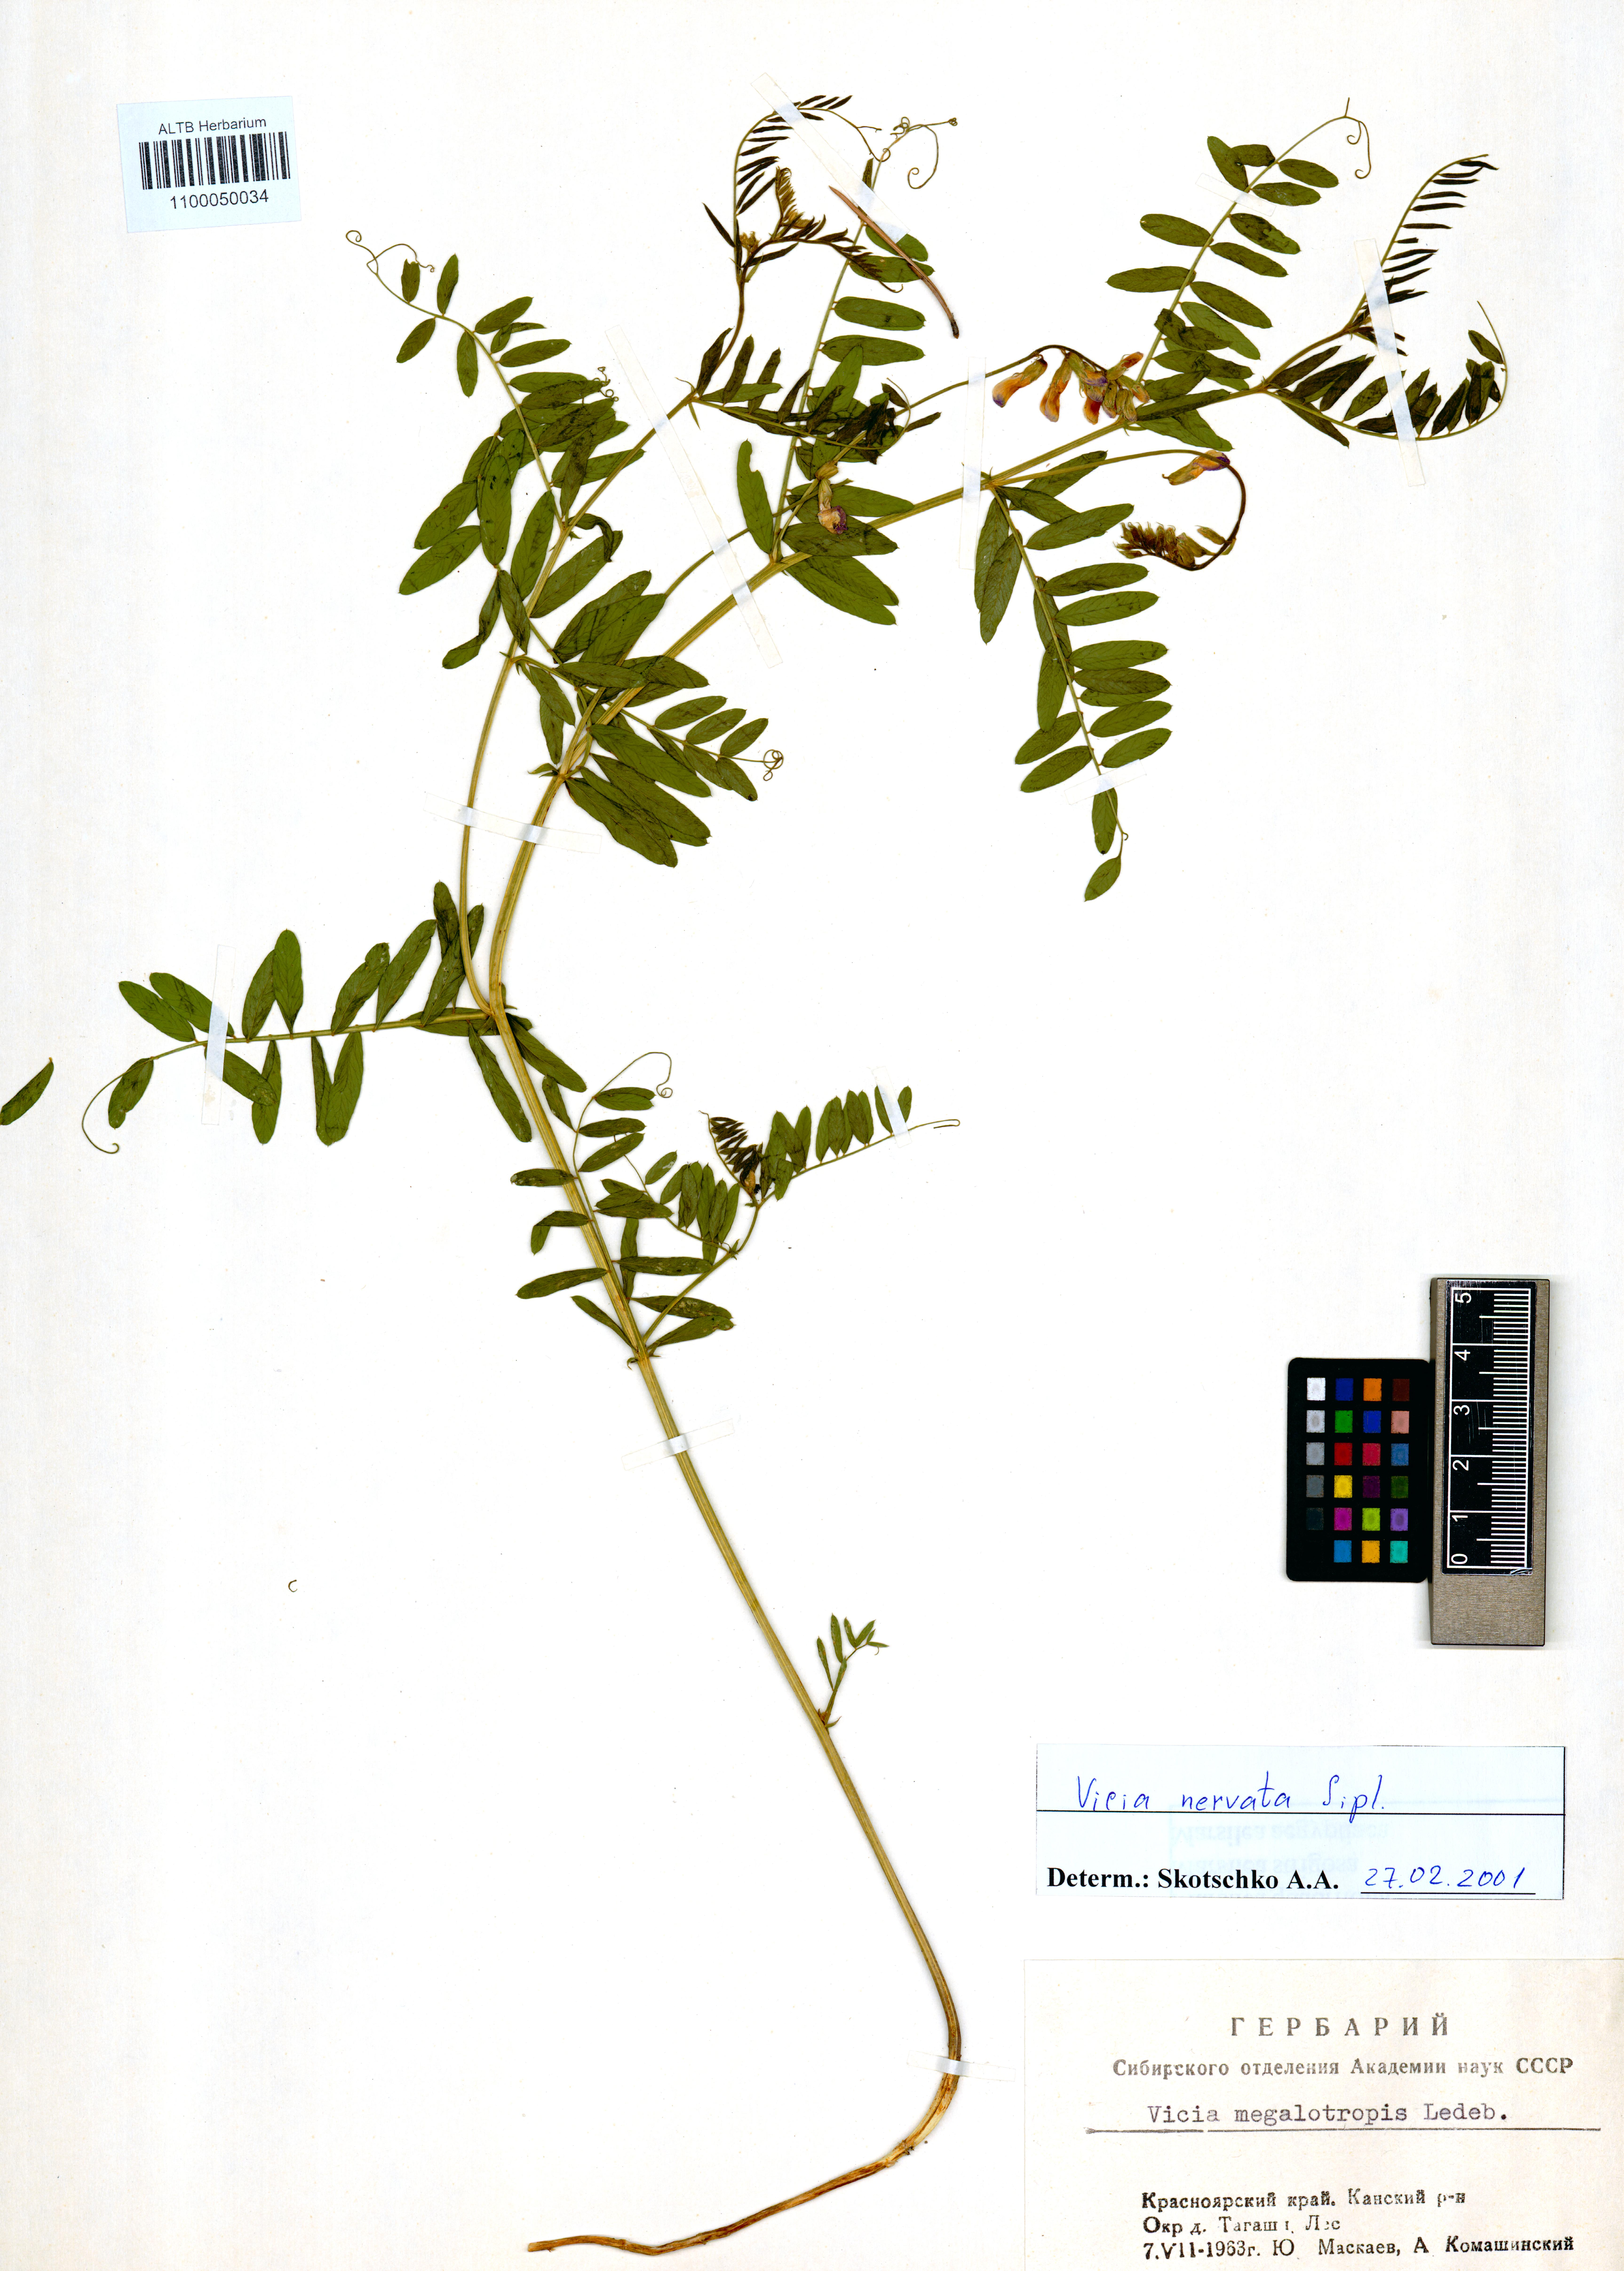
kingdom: Plantae
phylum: Tracheophyta
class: Magnoliopsida
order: Fabales
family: Fabaceae
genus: Vicia
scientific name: Vicia multicaulis
